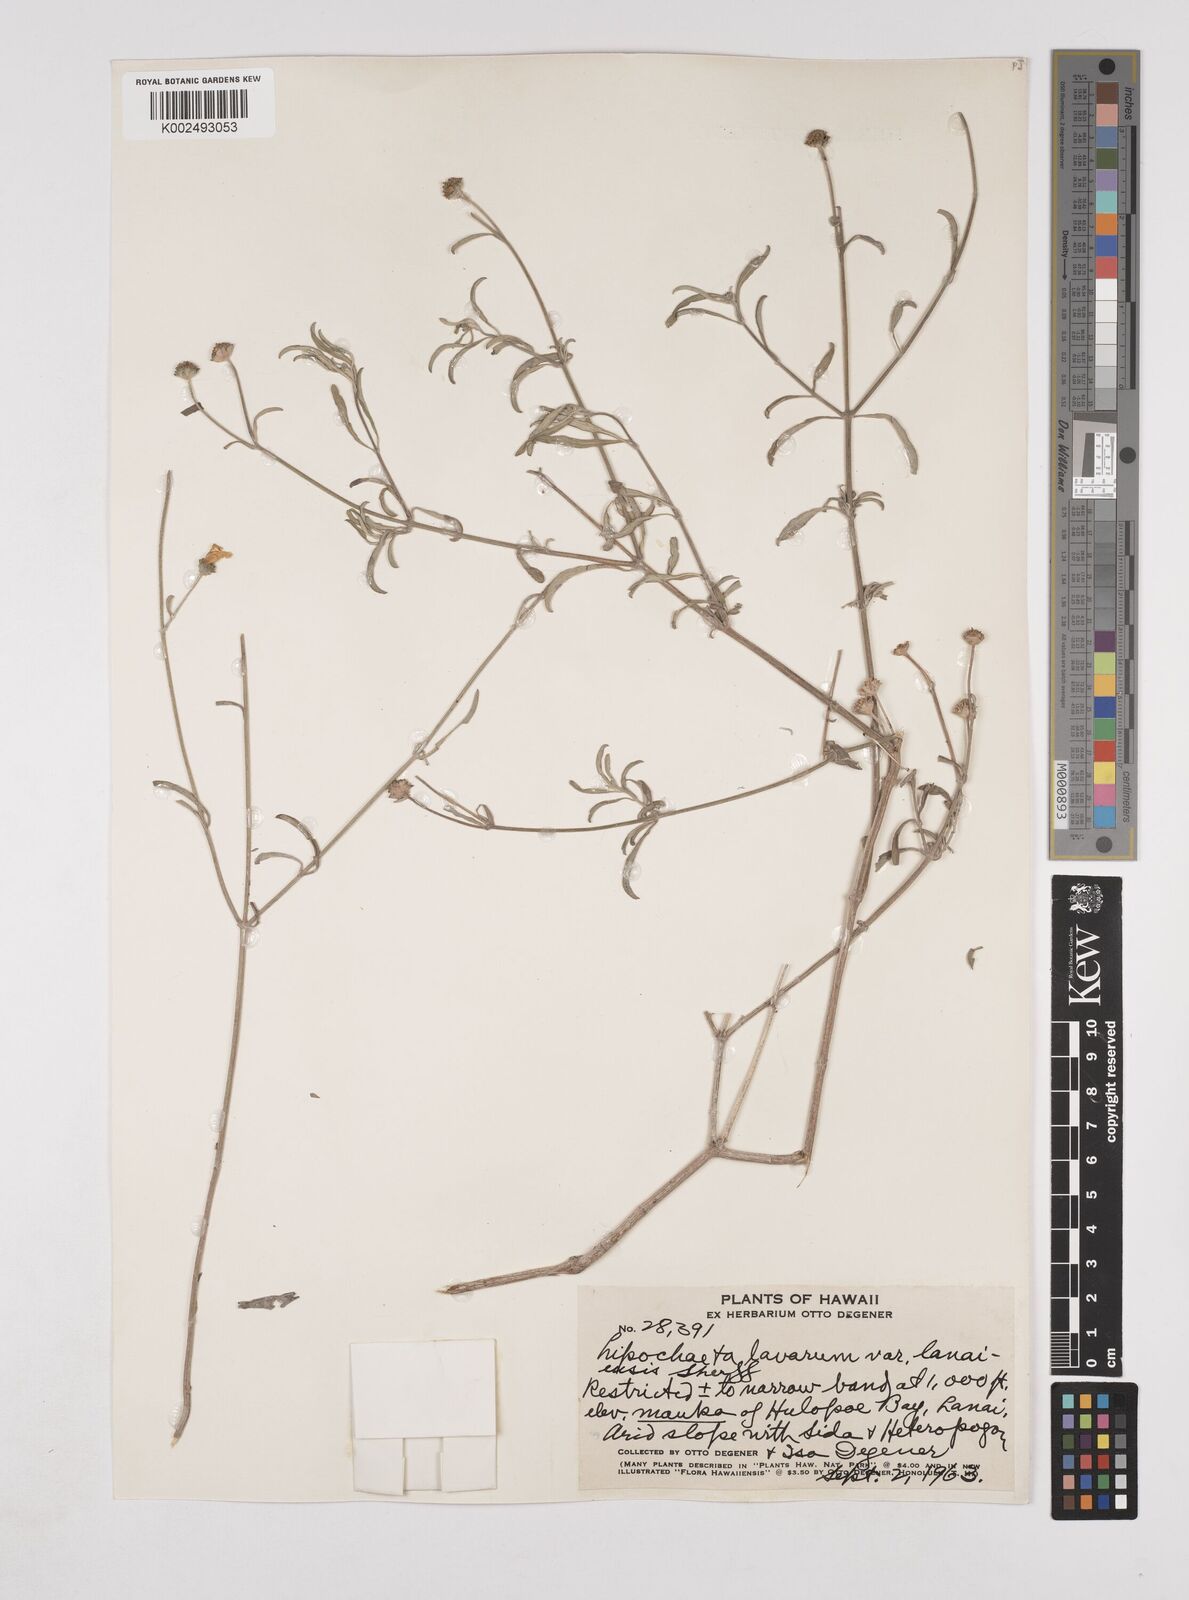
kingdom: Plantae
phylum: Tracheophyta
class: Magnoliopsida
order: Asterales
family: Asteraceae
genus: Lipochaeta
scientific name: Lipochaeta lavarum
